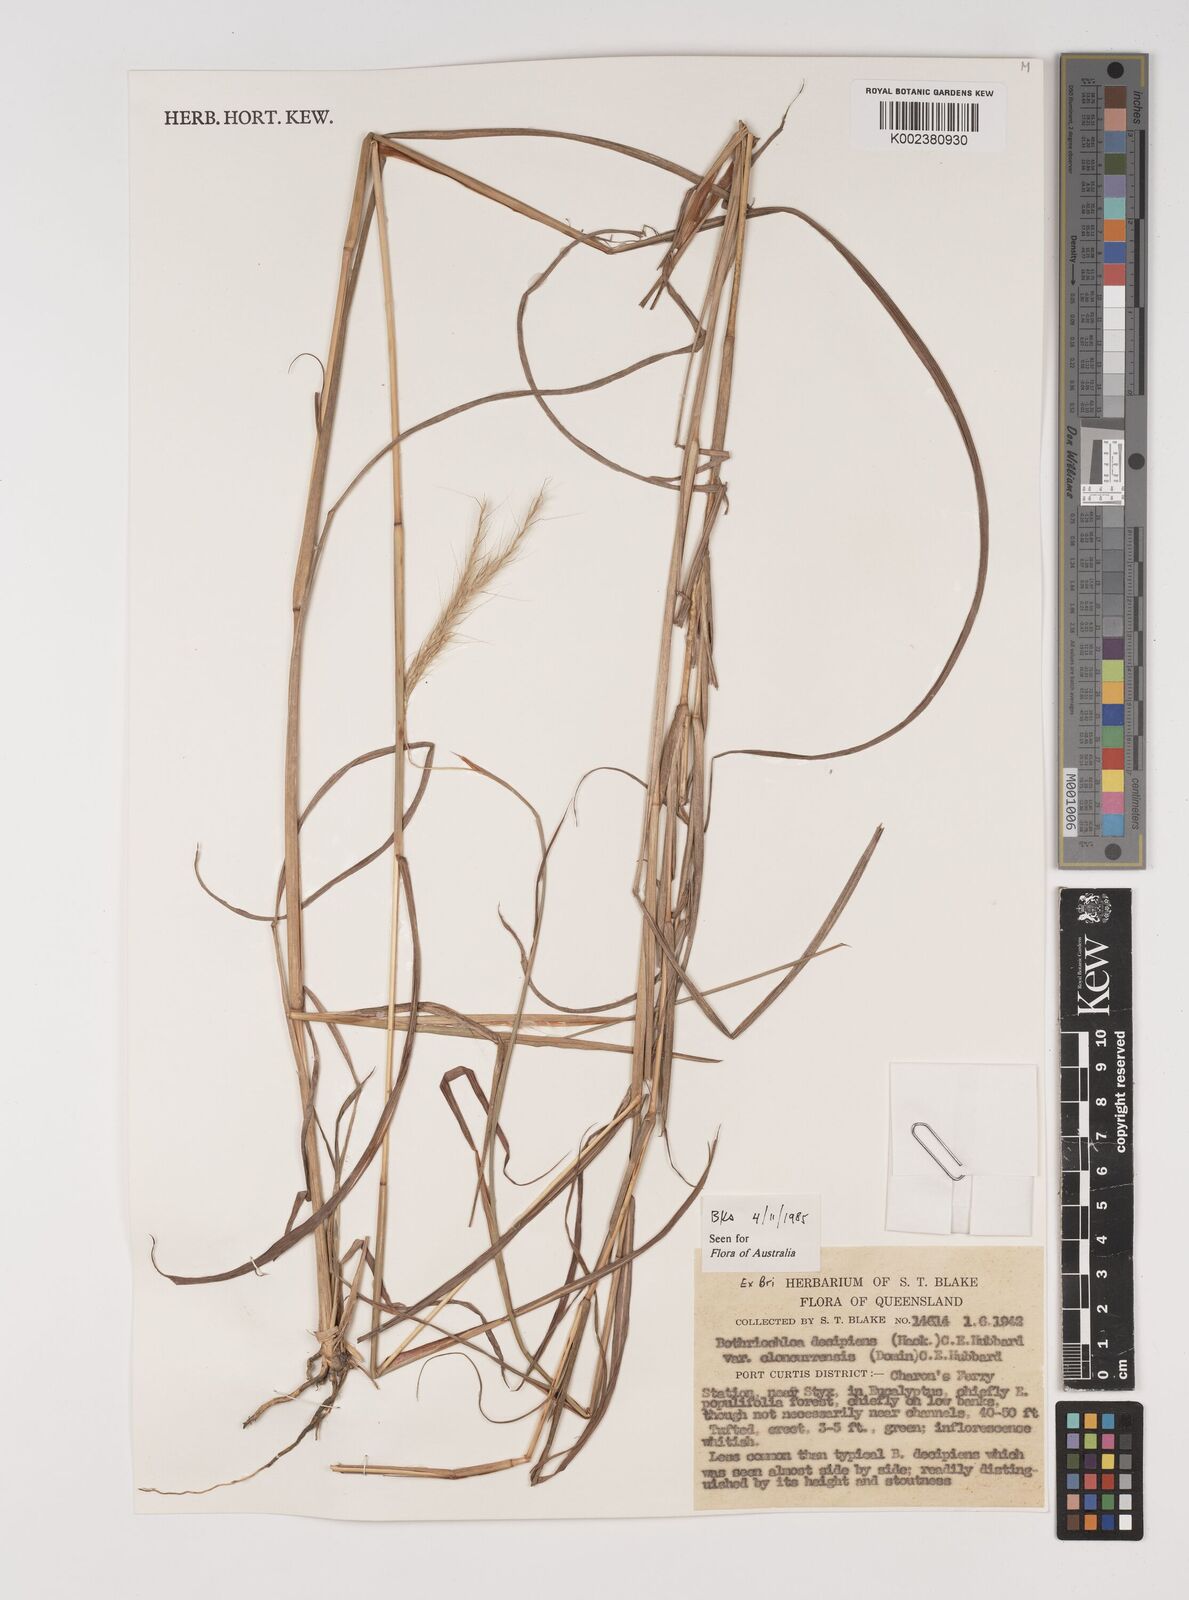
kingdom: Plantae
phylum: Tracheophyta
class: Liliopsida
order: Poales
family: Poaceae
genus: Bothriochloa
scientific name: Bothriochloa decipiens
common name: Pitted-bluegrass
